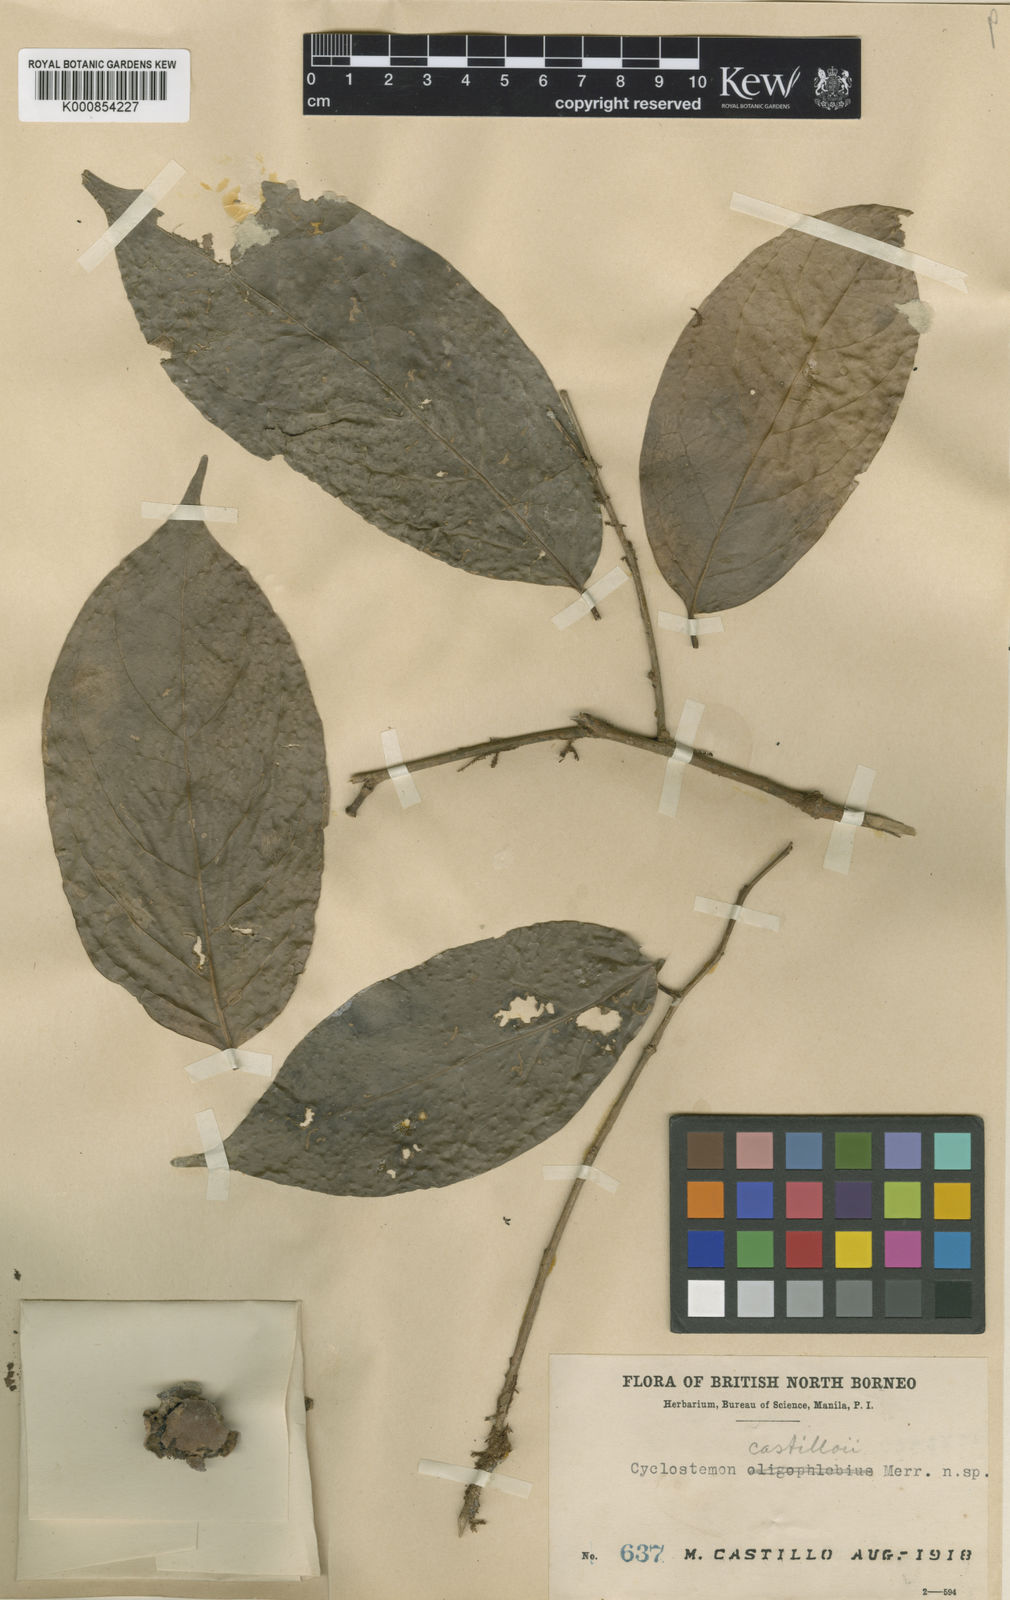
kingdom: Plantae
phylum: Tracheophyta
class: Magnoliopsida
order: Malpighiales
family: Putranjivaceae
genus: Drypetes
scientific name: Drypetes castilloi
